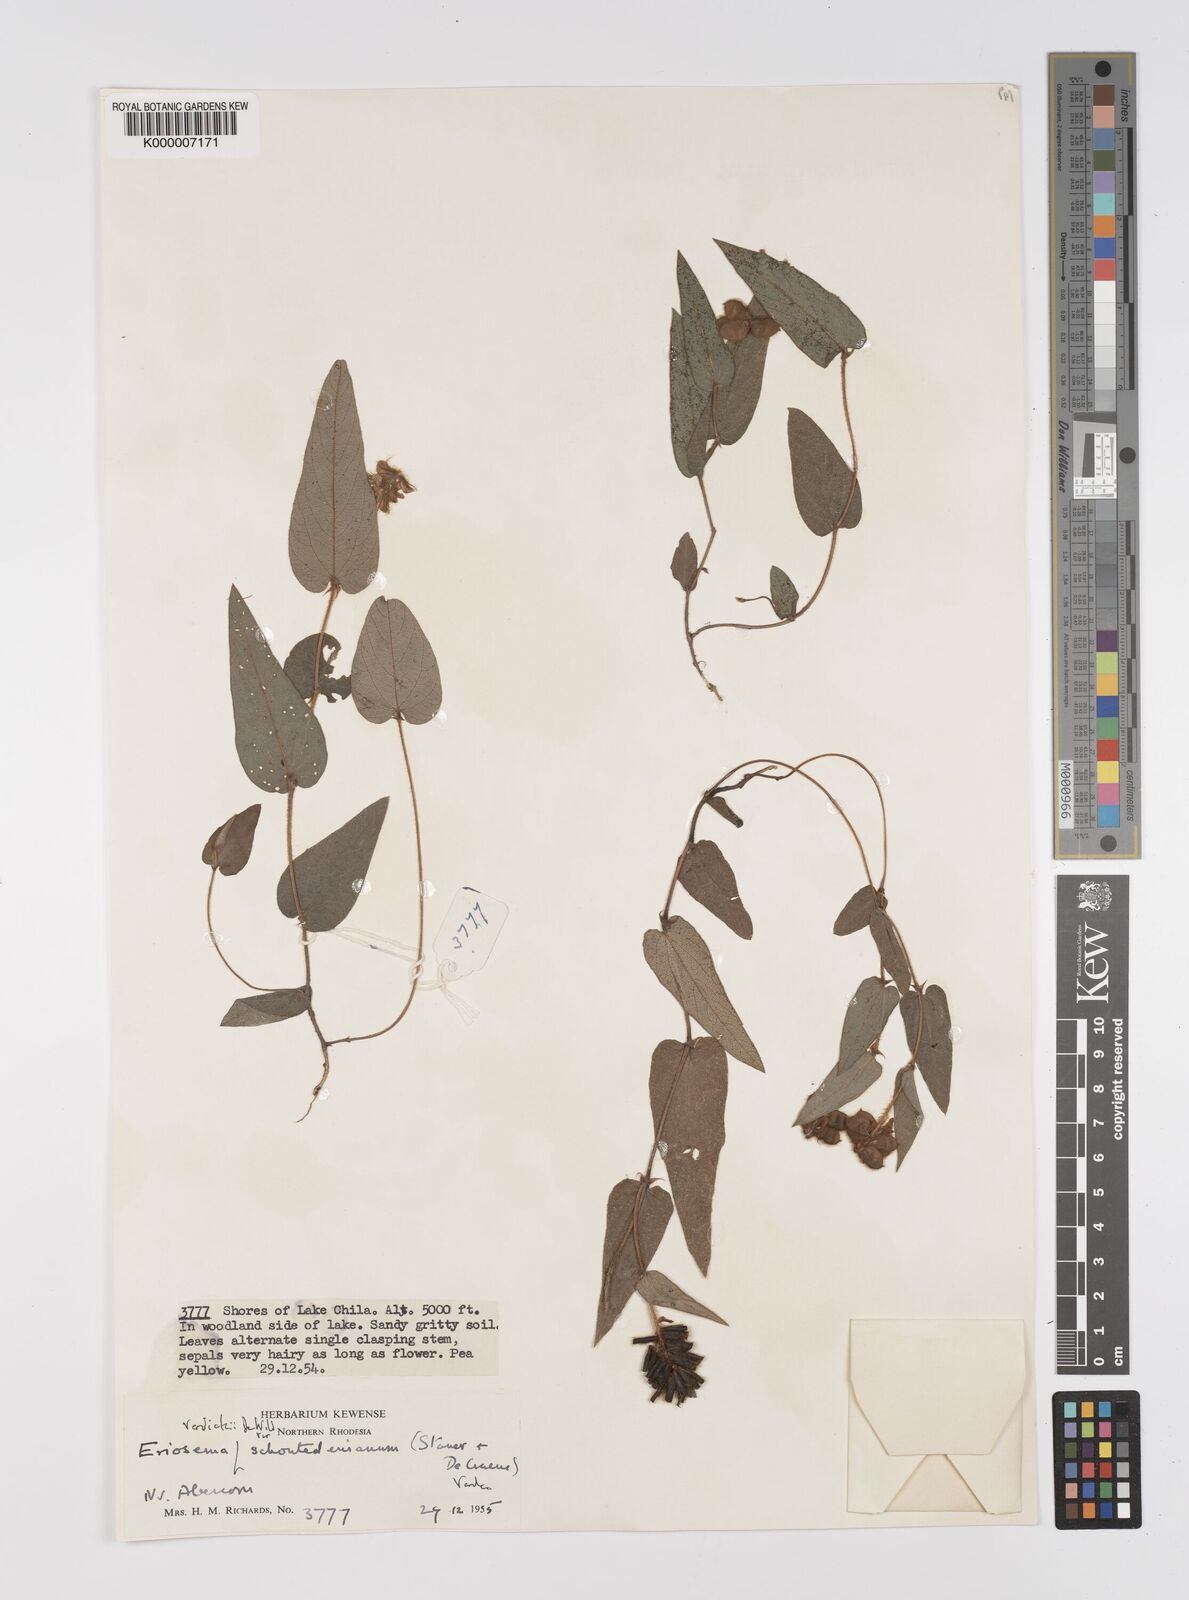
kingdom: Plantae
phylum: Tracheophyta
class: Magnoliopsida
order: Fabales
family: Fabaceae
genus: Eriosema
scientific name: Eriosema verdickii
